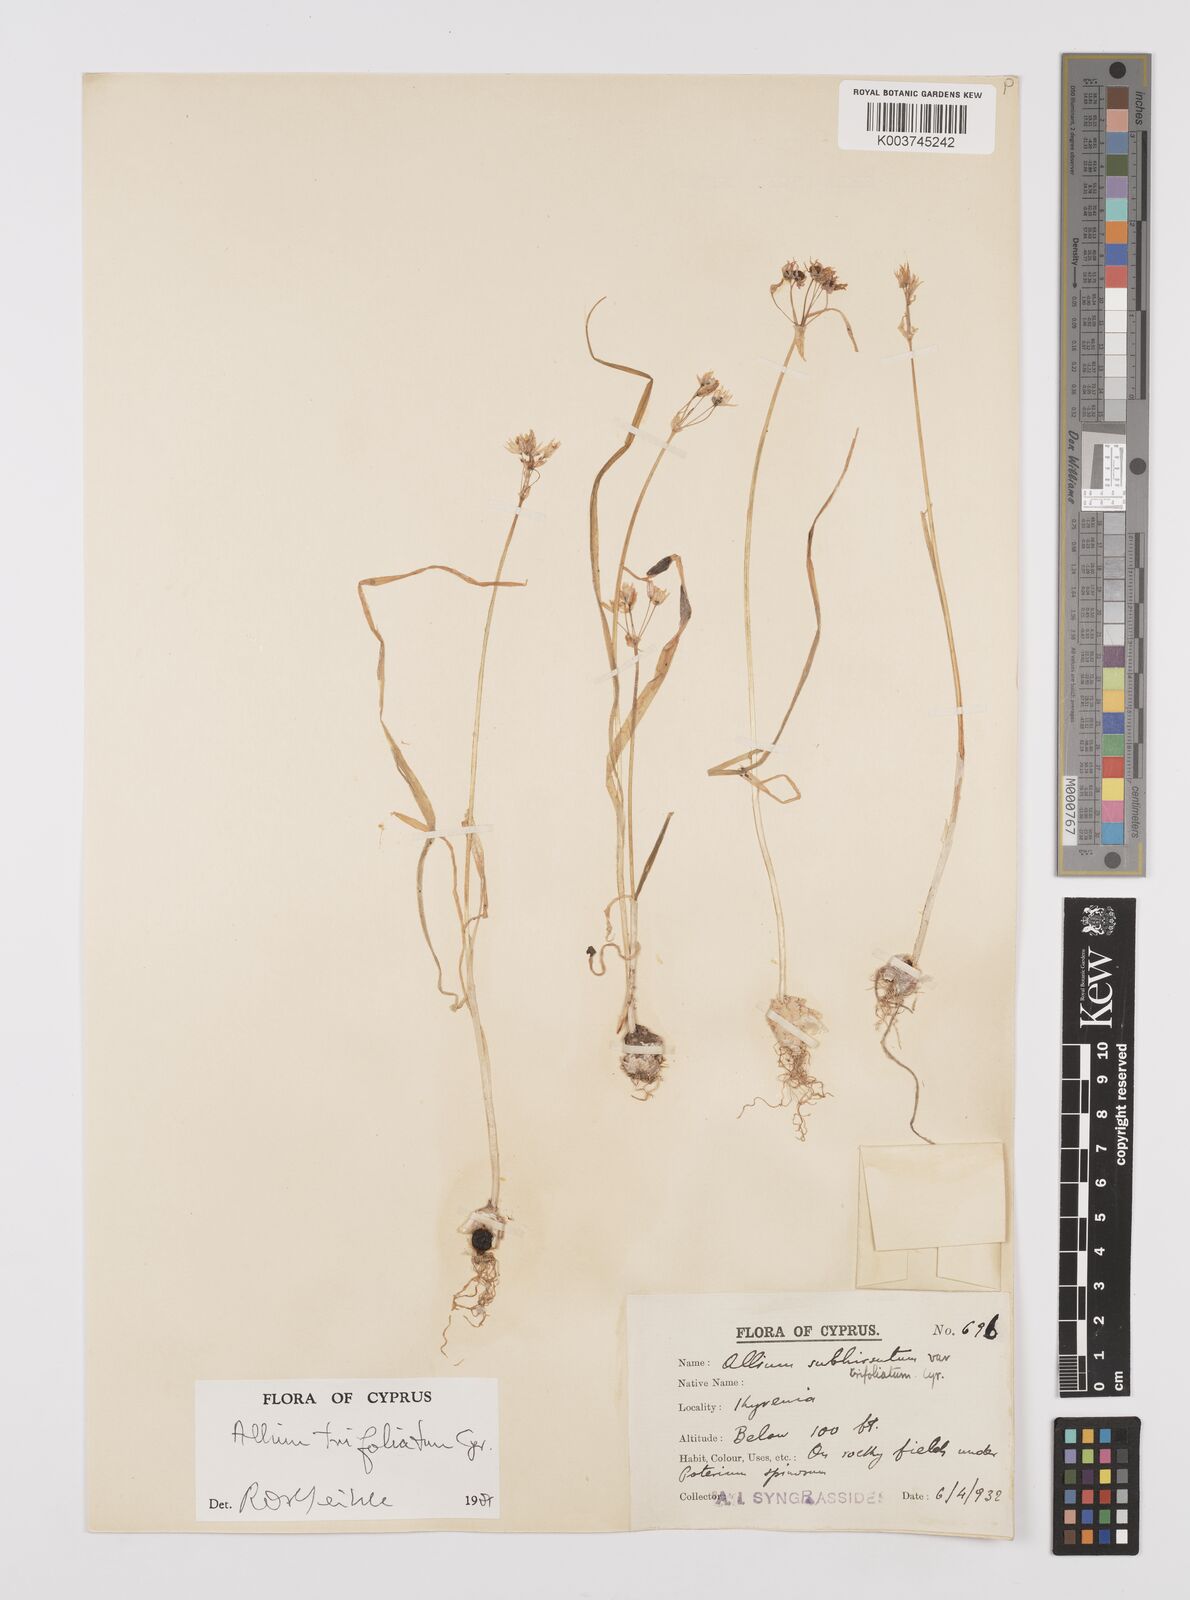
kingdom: Plantae
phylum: Tracheophyta
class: Liliopsida
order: Asparagales
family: Amaryllidaceae
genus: Allium
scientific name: Allium trifoliatum
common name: Pink garlic
